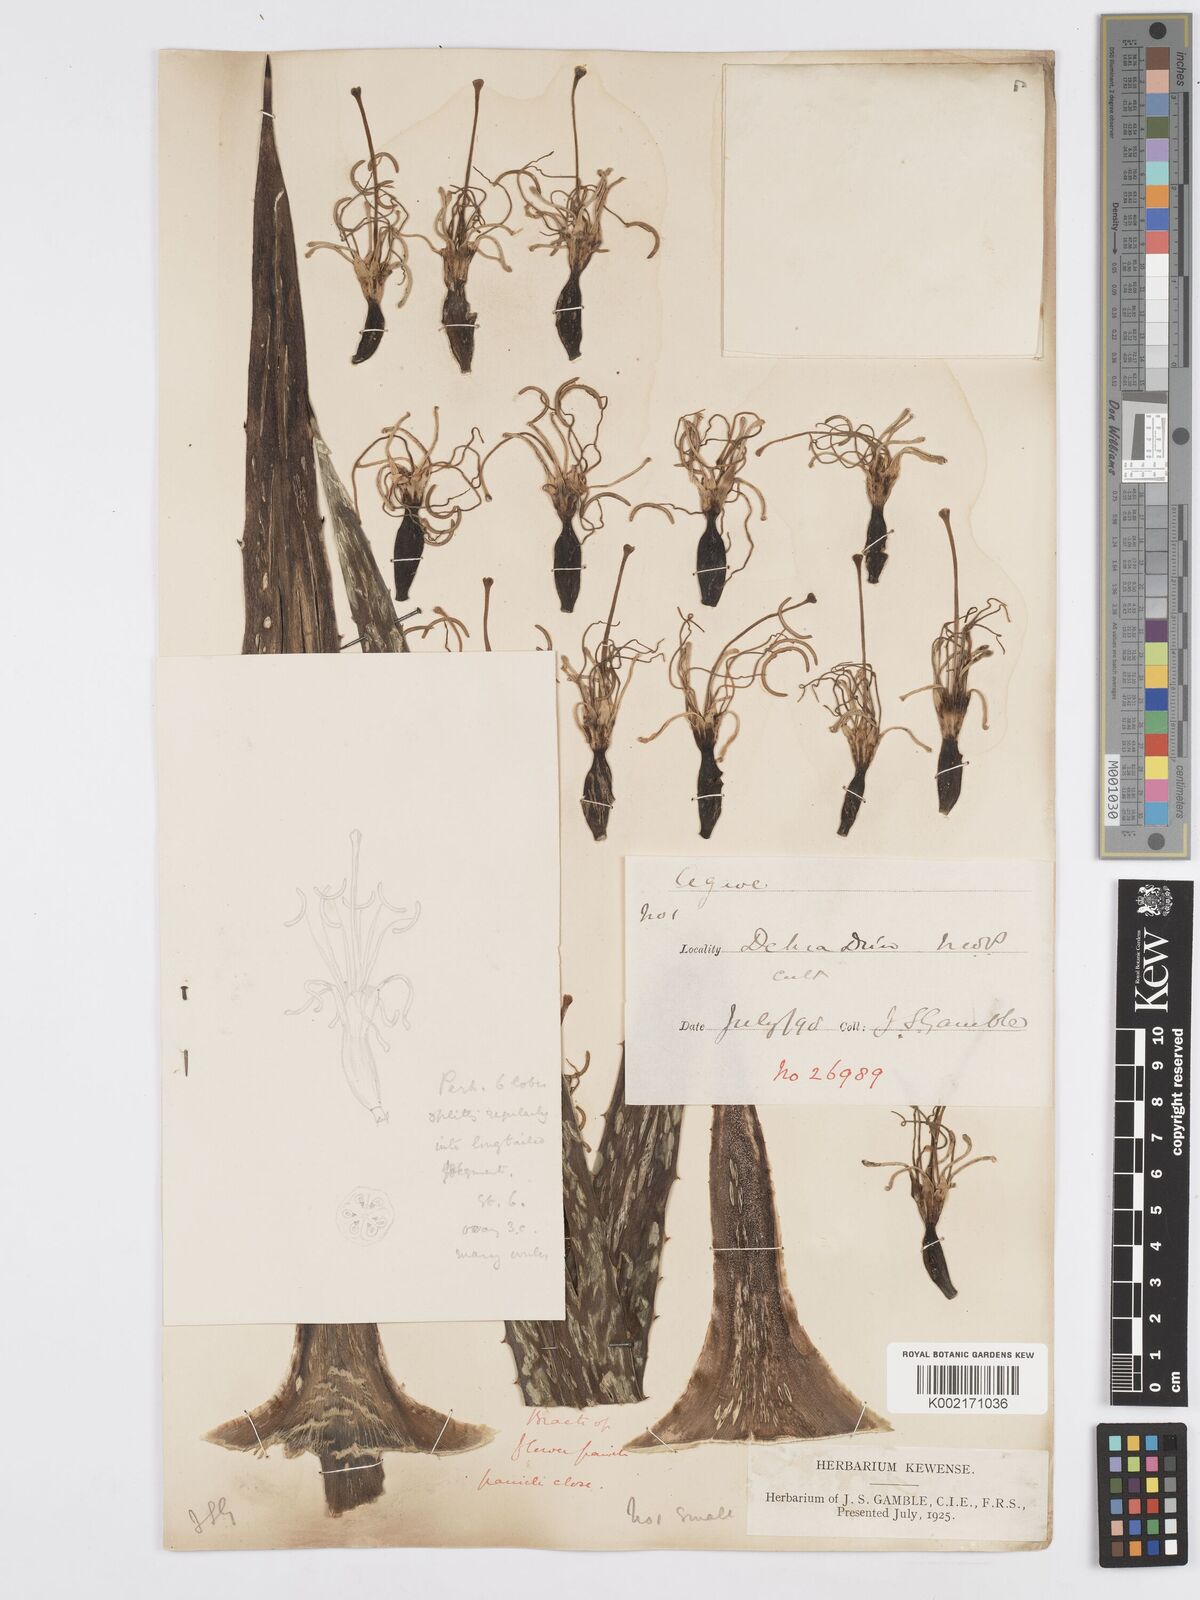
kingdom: Plantae
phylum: Tracheophyta
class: Liliopsida
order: Asparagales
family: Asparagaceae
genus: Agave
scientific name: Agave americana
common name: Centuryplant
